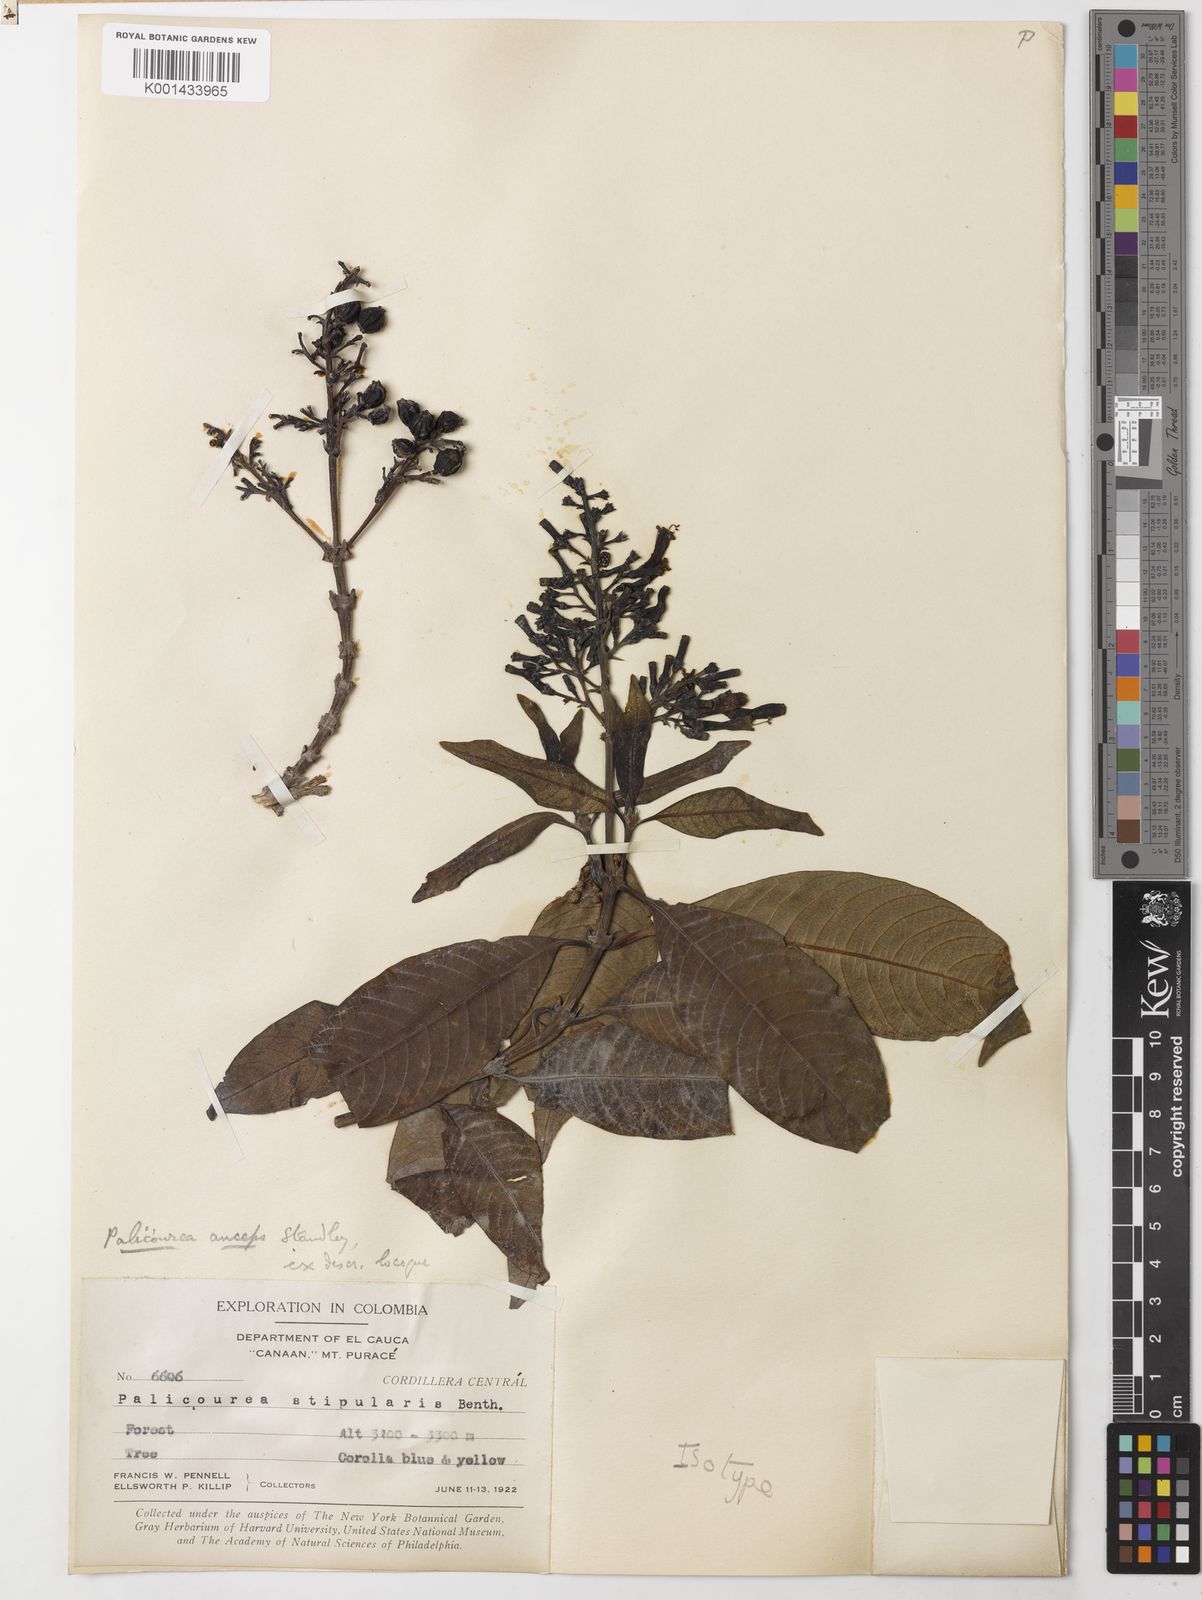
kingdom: Plantae
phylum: Tracheophyta
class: Magnoliopsida
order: Gentianales
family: Rubiaceae
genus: Palicourea
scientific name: Palicourea weberbaueri
